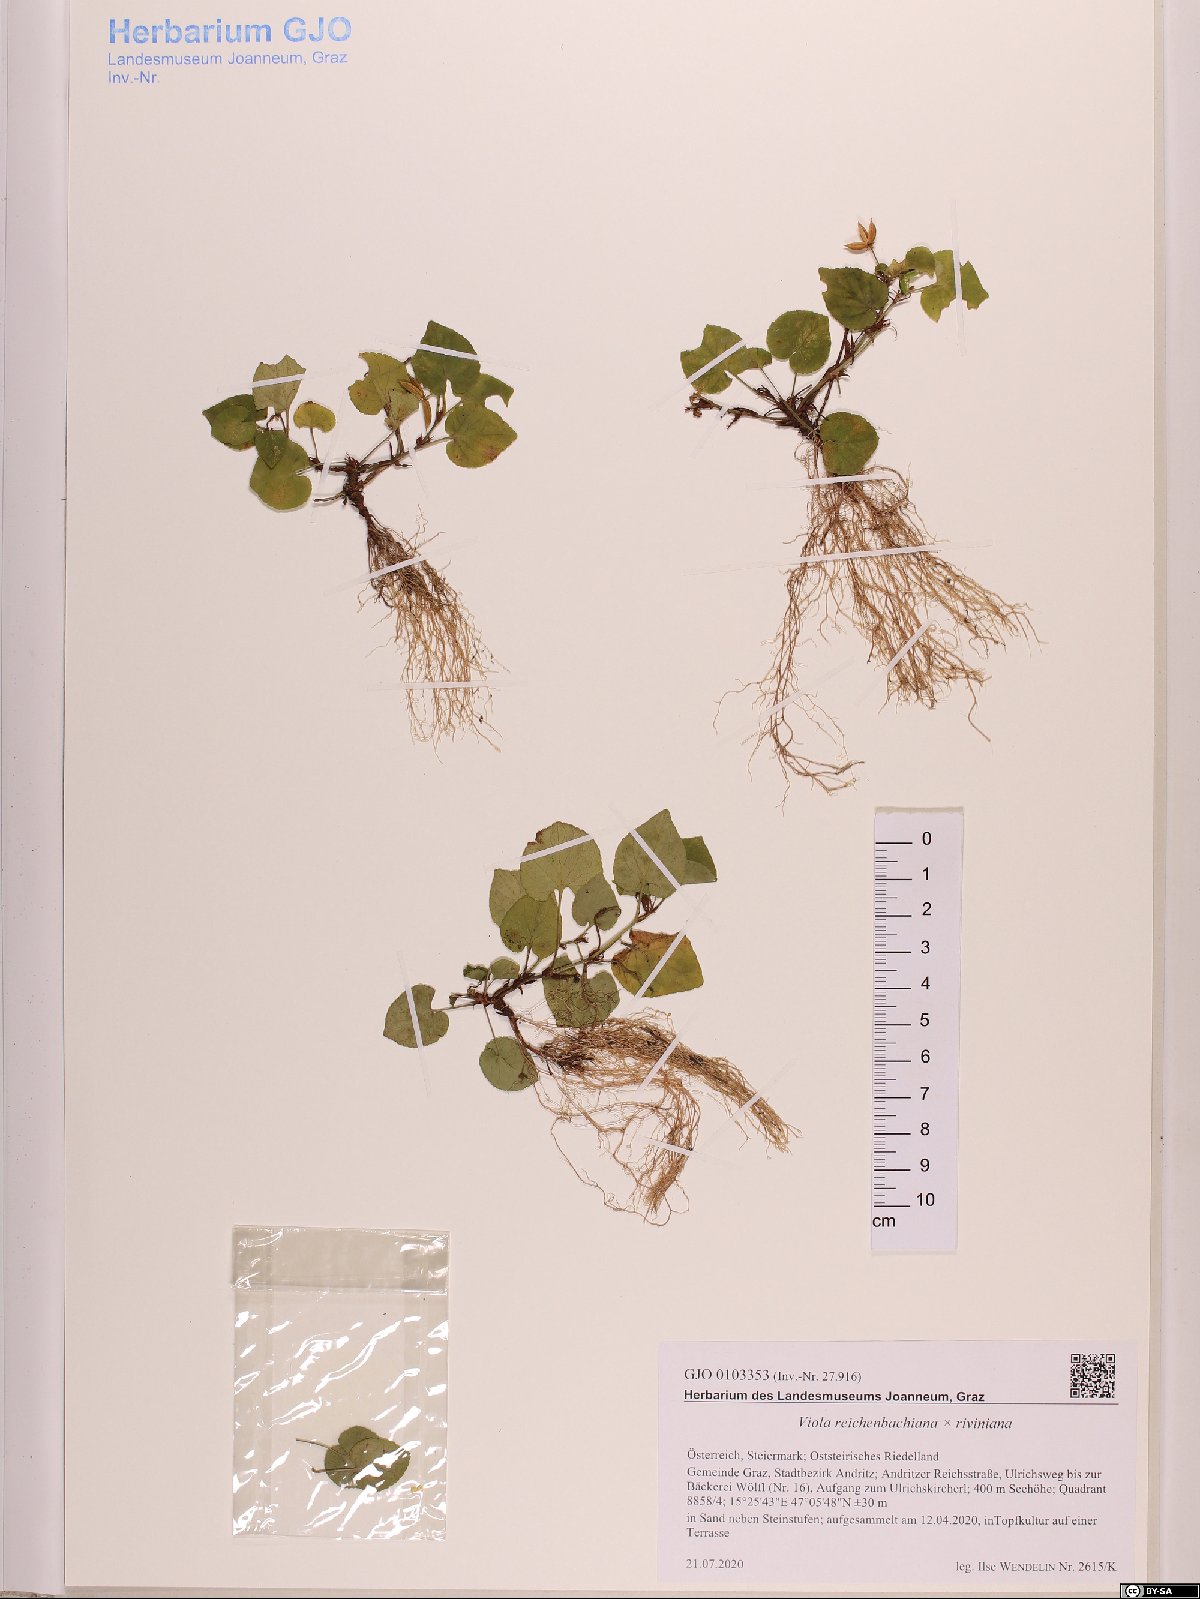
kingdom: Plantae
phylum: Tracheophyta
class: Magnoliopsida
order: Malpighiales
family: Violaceae
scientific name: Violaceae
